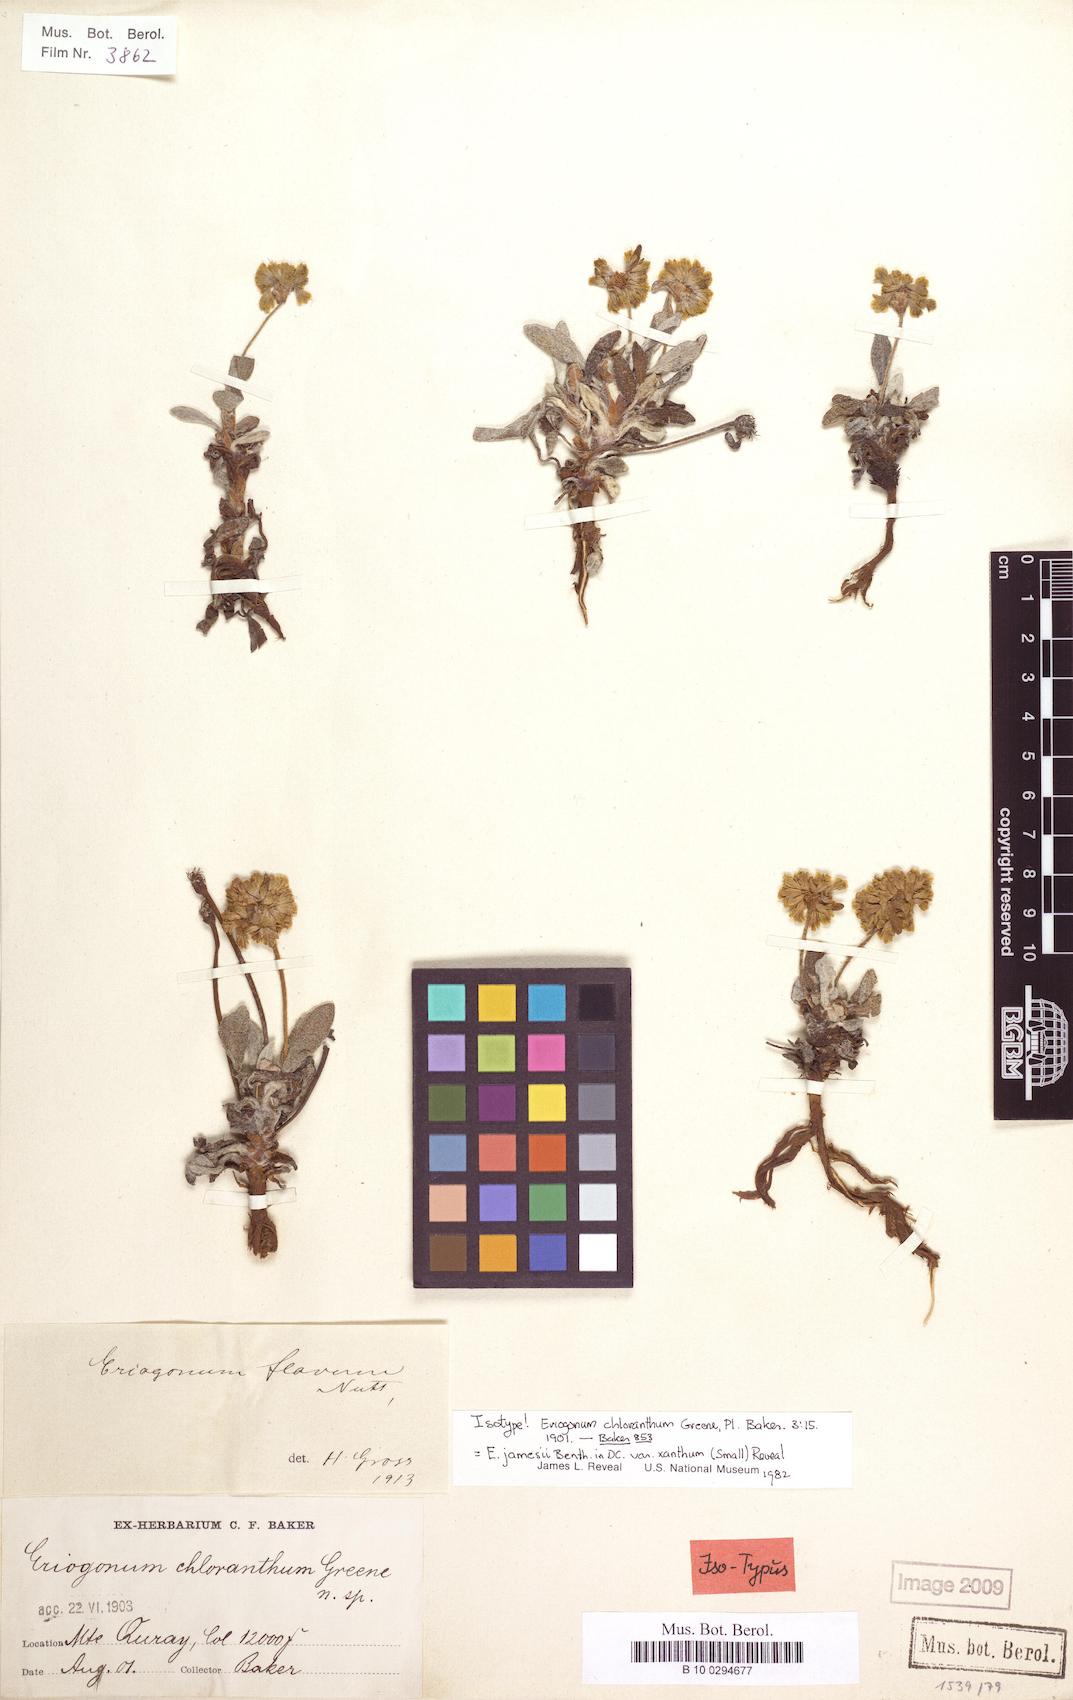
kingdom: Plantae
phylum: Tracheophyta
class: Magnoliopsida
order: Caryophyllales
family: Polygonaceae
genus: Eriogonum
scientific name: Eriogonum arcuatum
